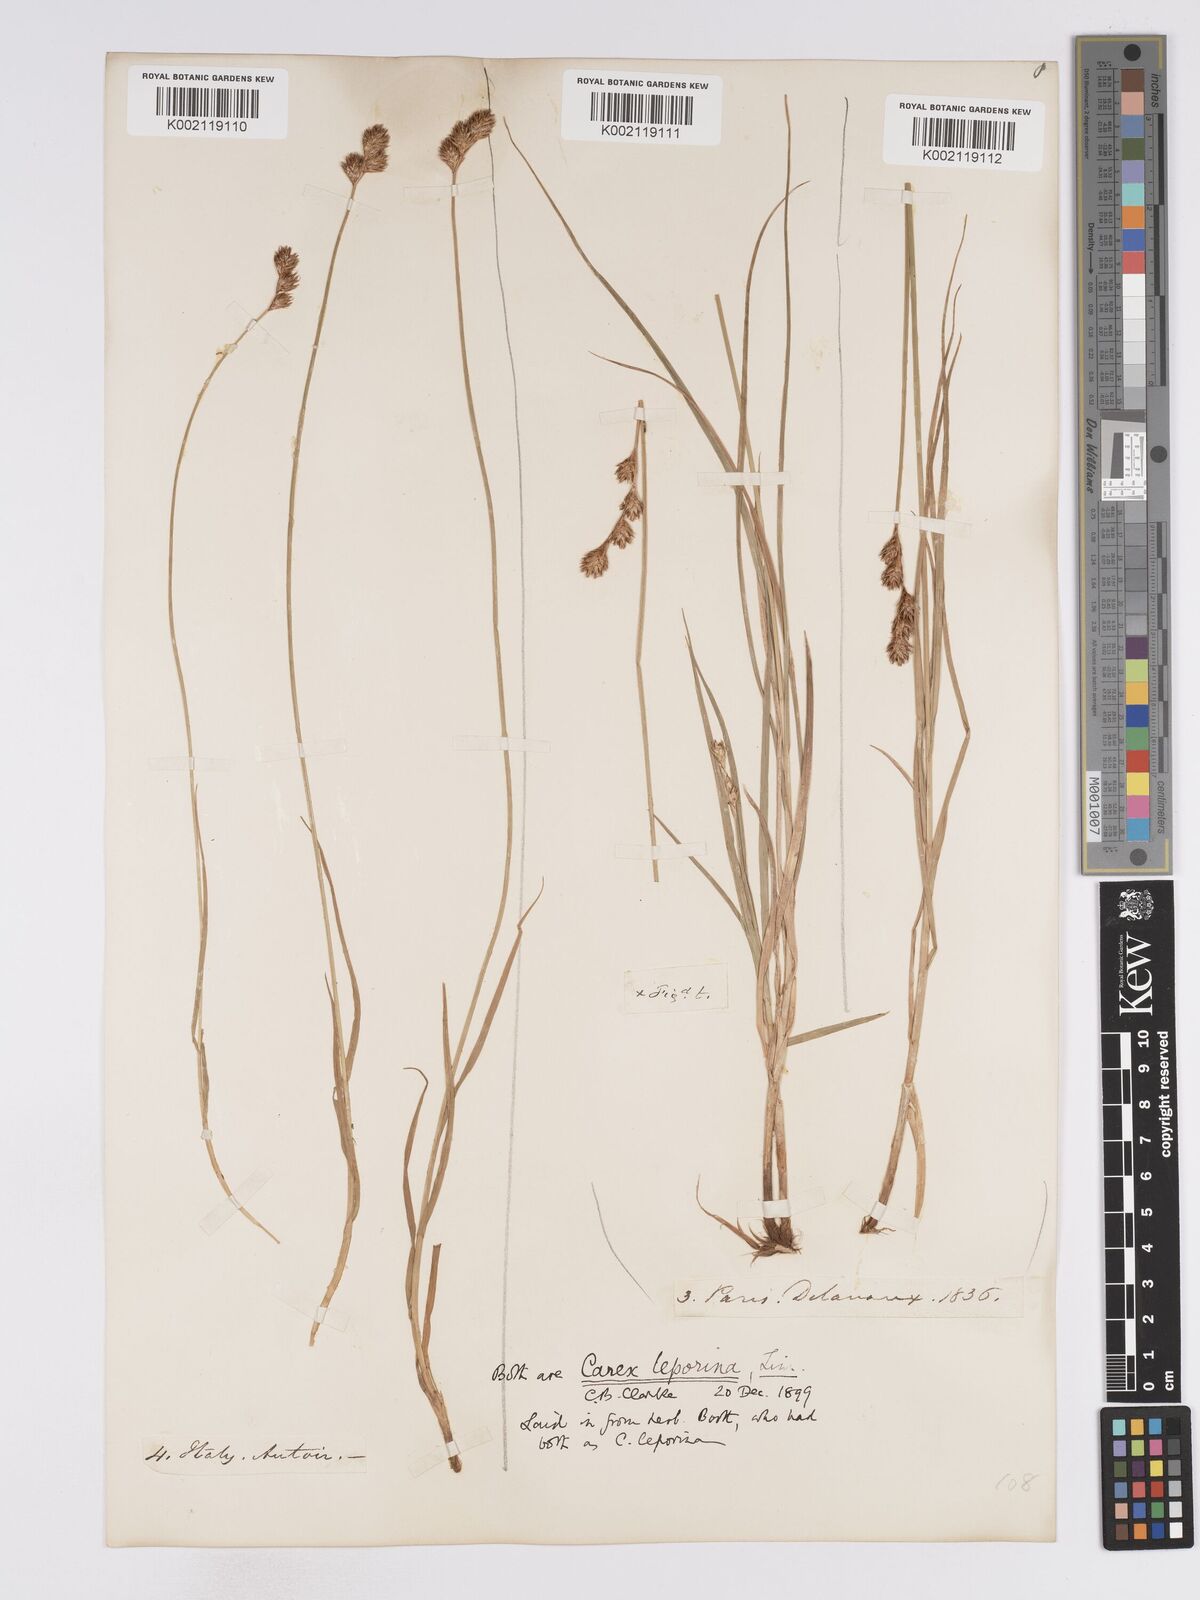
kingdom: Plantae
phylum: Tracheophyta
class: Liliopsida
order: Poales
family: Cyperaceae
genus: Carex
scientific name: Carex leporina
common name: Oval sedge
